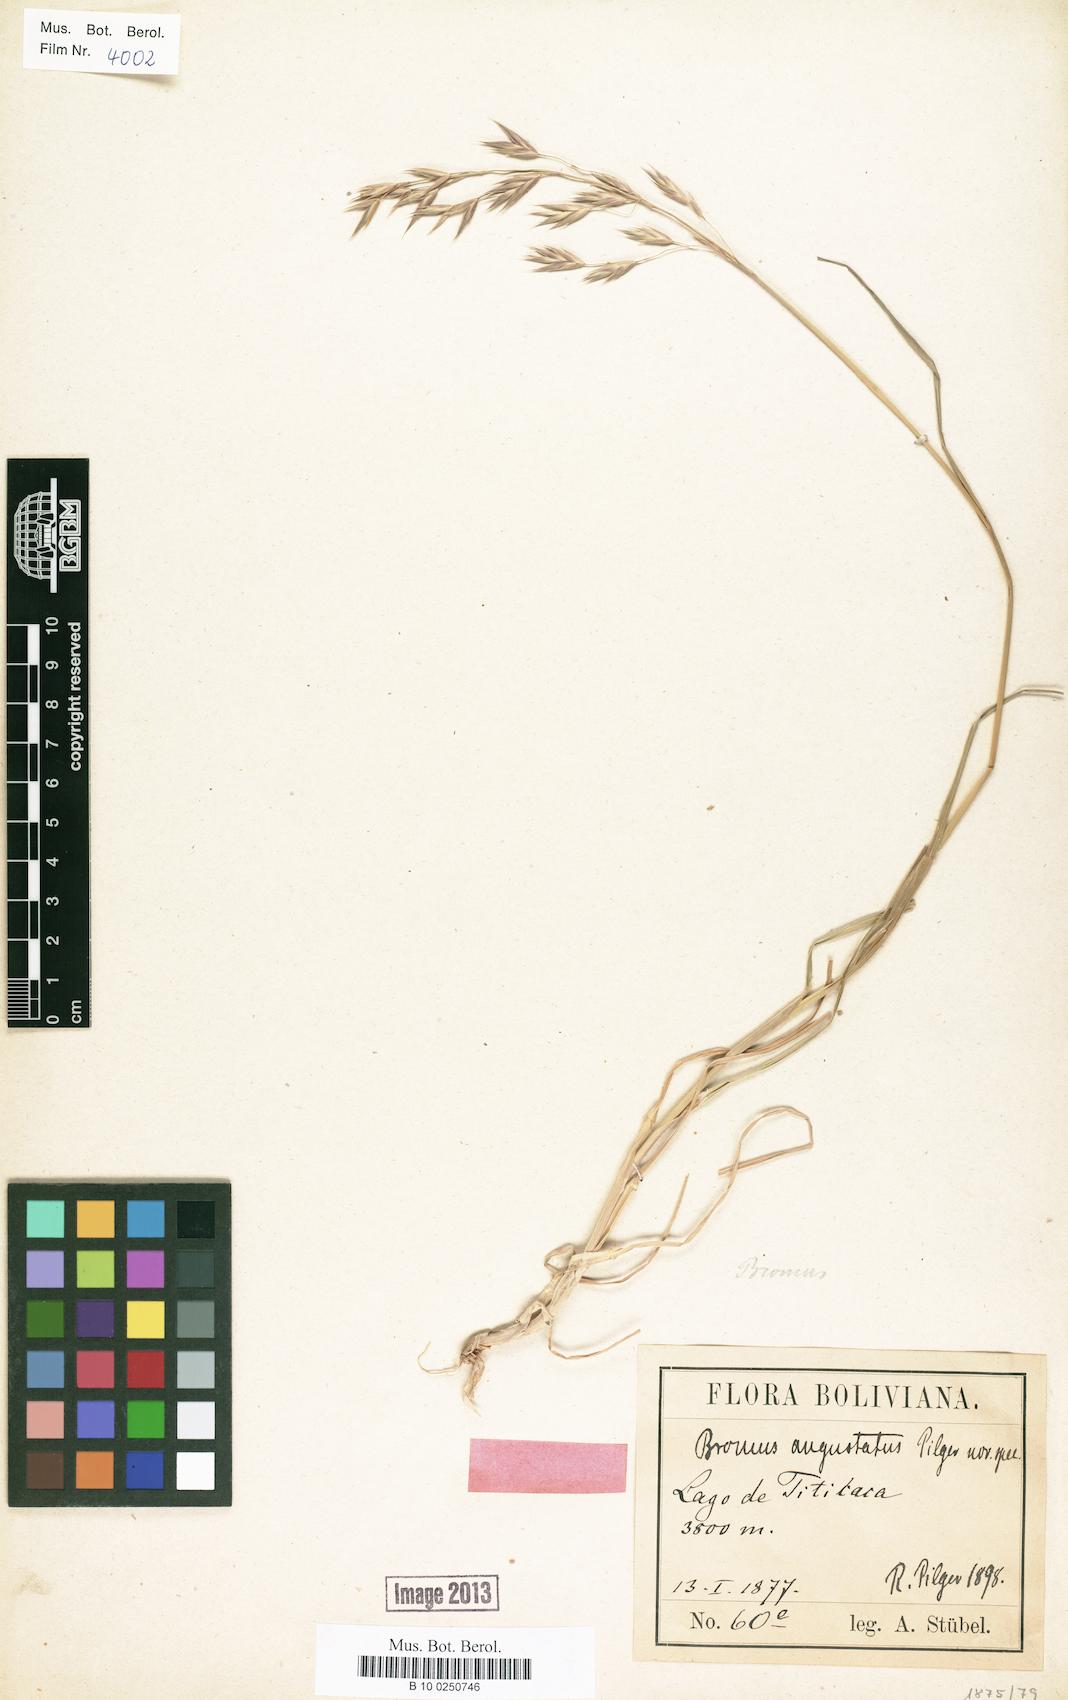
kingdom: Plantae
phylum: Tracheophyta
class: Liliopsida
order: Poales
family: Poaceae
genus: Bromus
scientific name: Bromus catharticus
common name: Rescuegrass
